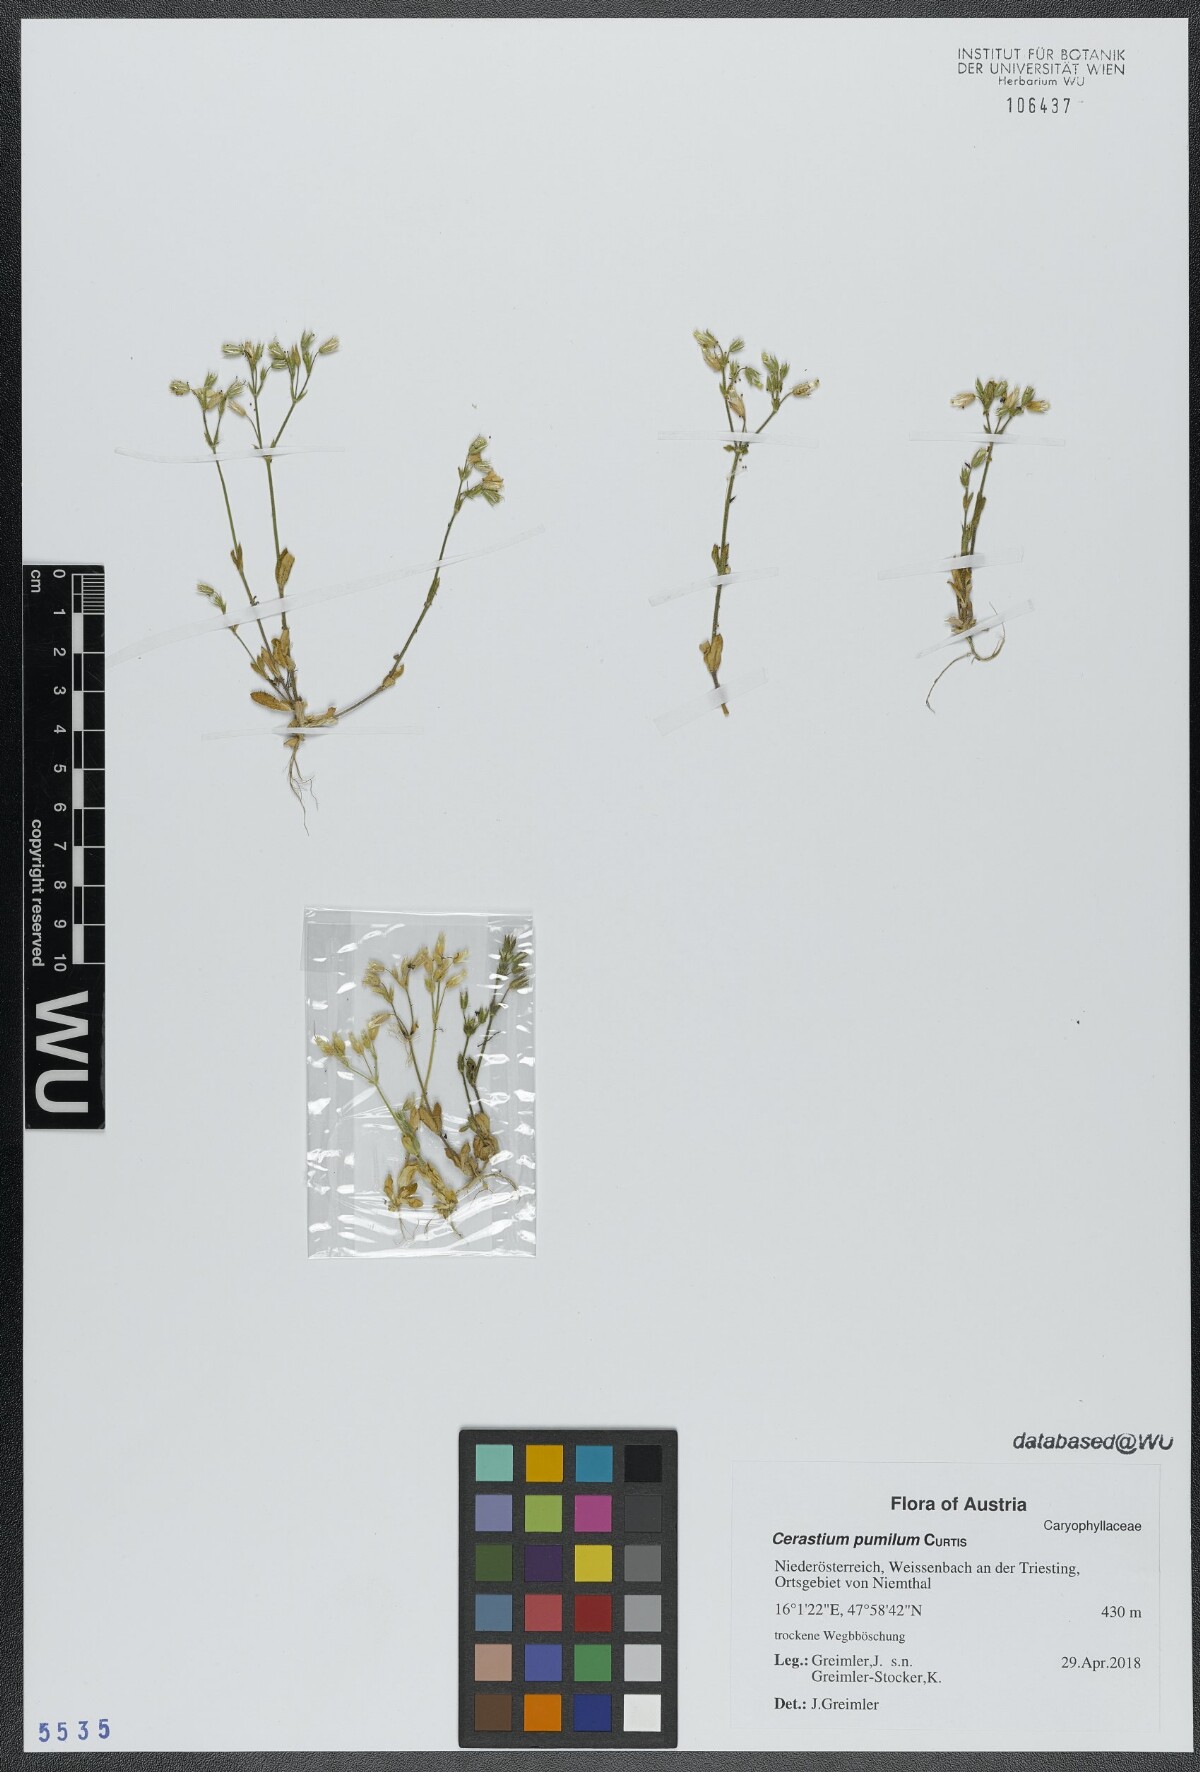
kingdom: Plantae
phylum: Tracheophyta
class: Magnoliopsida
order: Caryophyllales
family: Caryophyllaceae
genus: Cerastium
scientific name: Cerastium pumilum
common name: Dwarf mouse-ear
